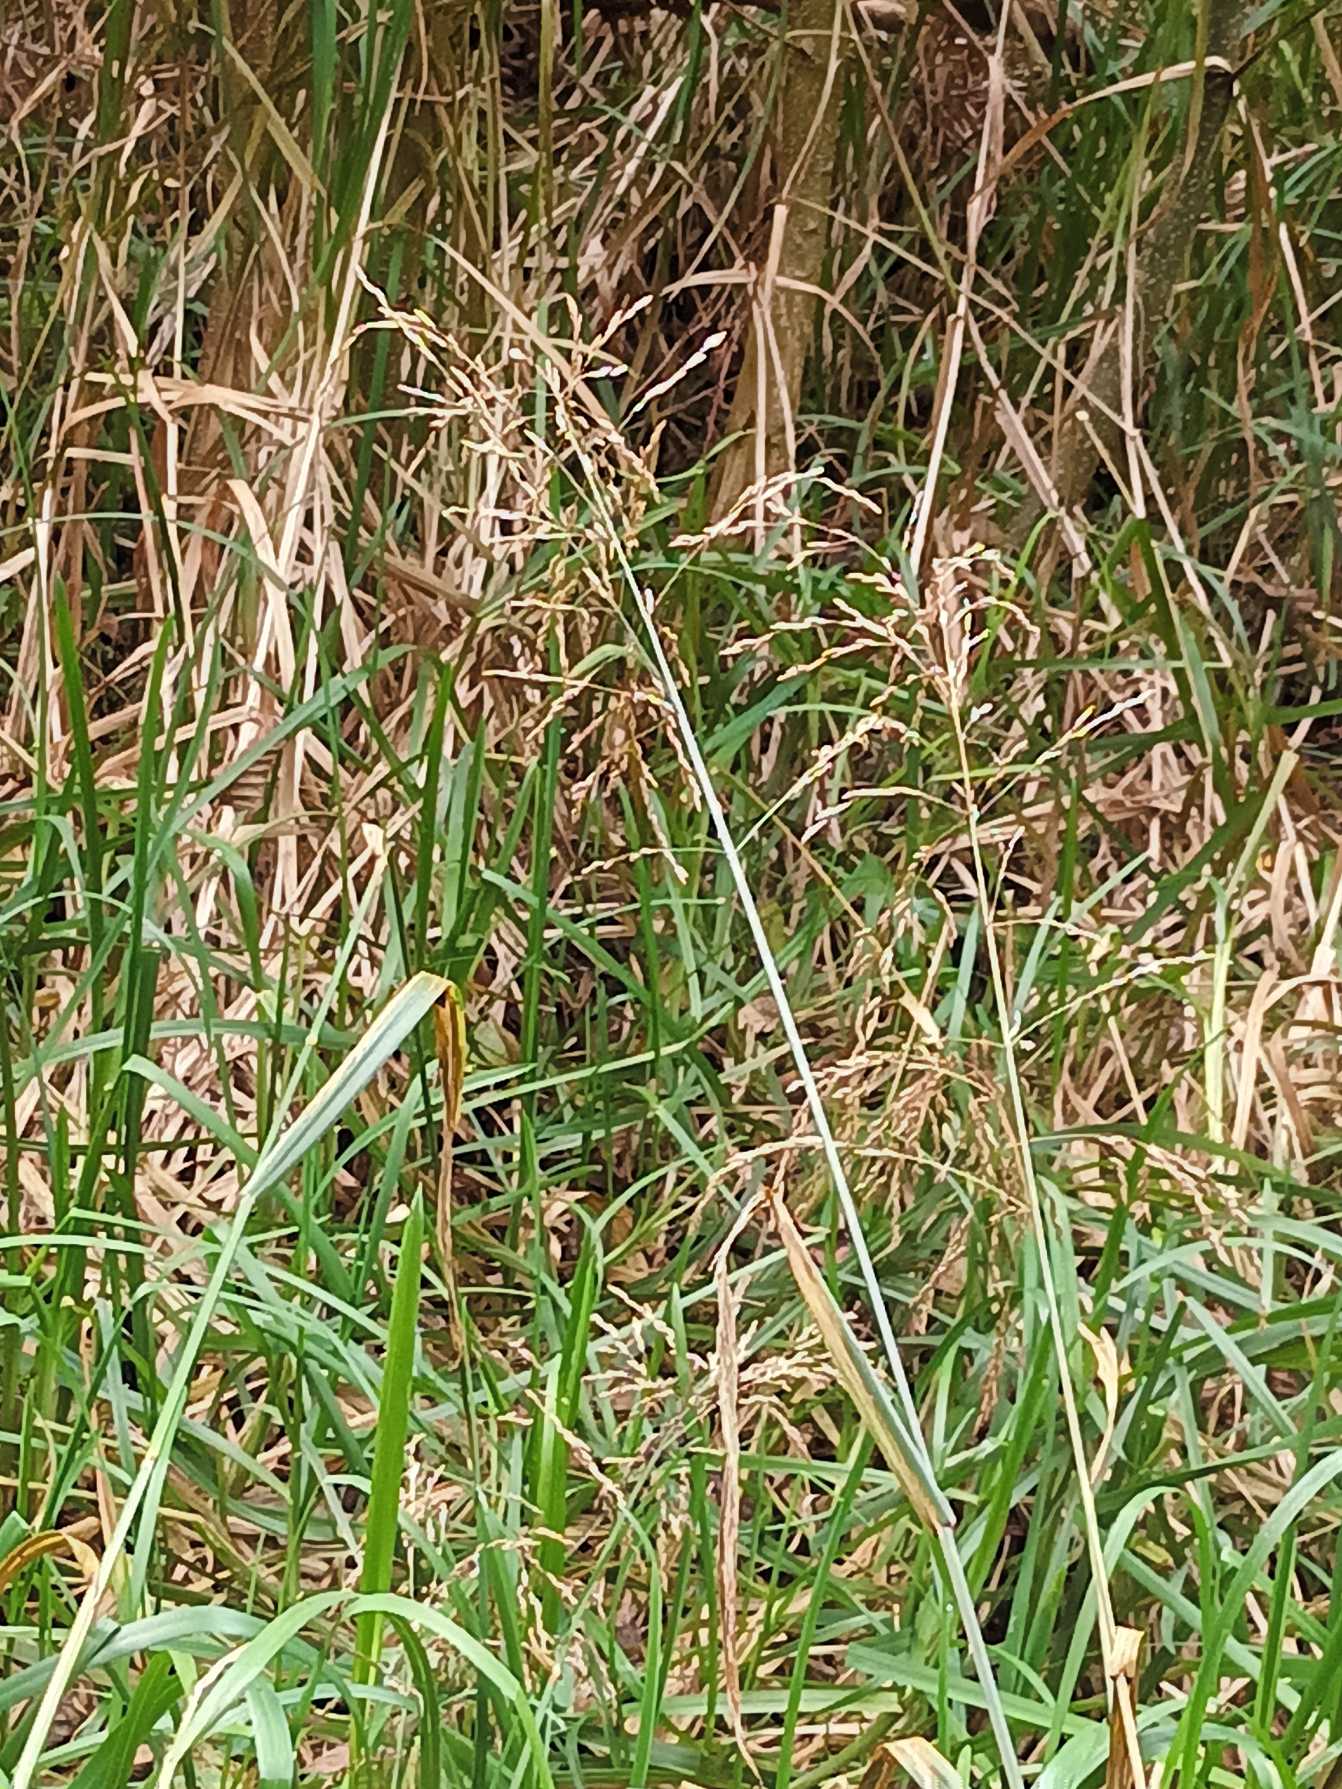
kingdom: Plantae
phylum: Tracheophyta
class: Liliopsida
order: Poales
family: Poaceae
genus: Glyceria
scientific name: Glyceria maxima
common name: Høj sødgræs
